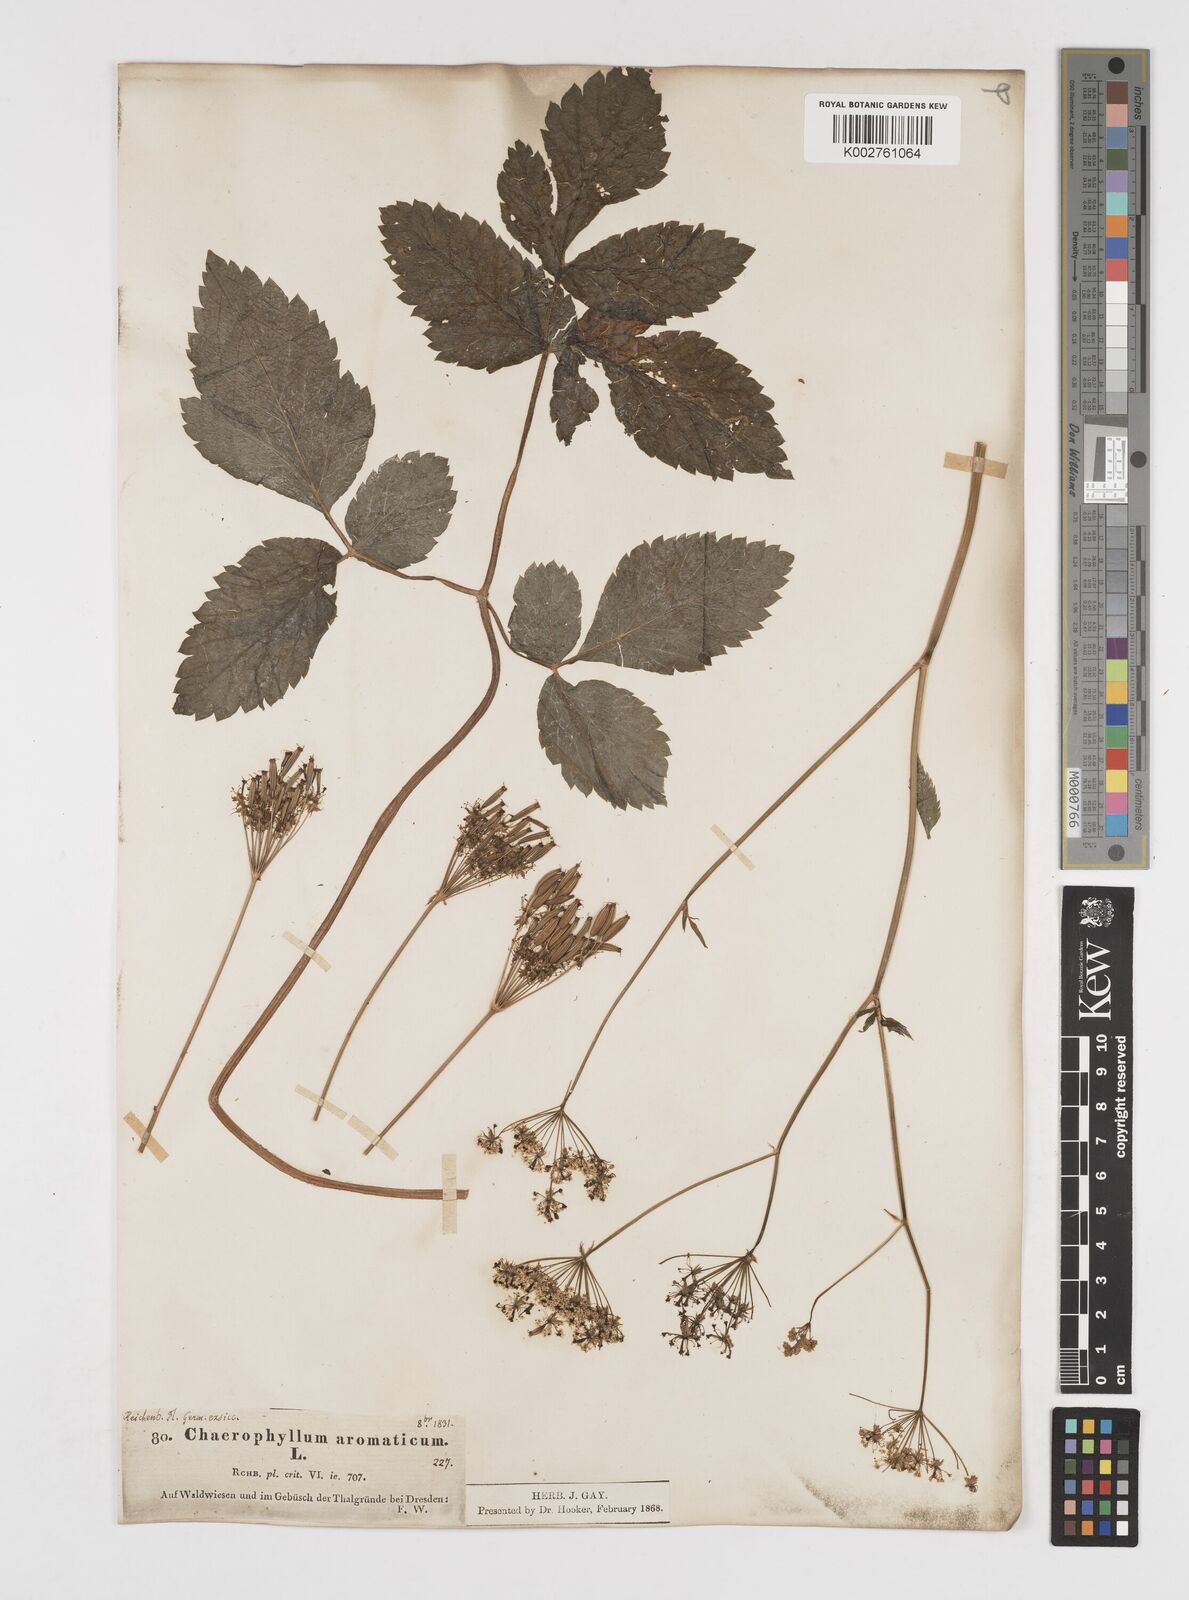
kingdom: Plantae
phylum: Tracheophyta
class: Magnoliopsida
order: Apiales
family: Apiaceae
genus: Chaerophyllum
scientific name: Chaerophyllum aromaticum
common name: Broadleaf chervil
